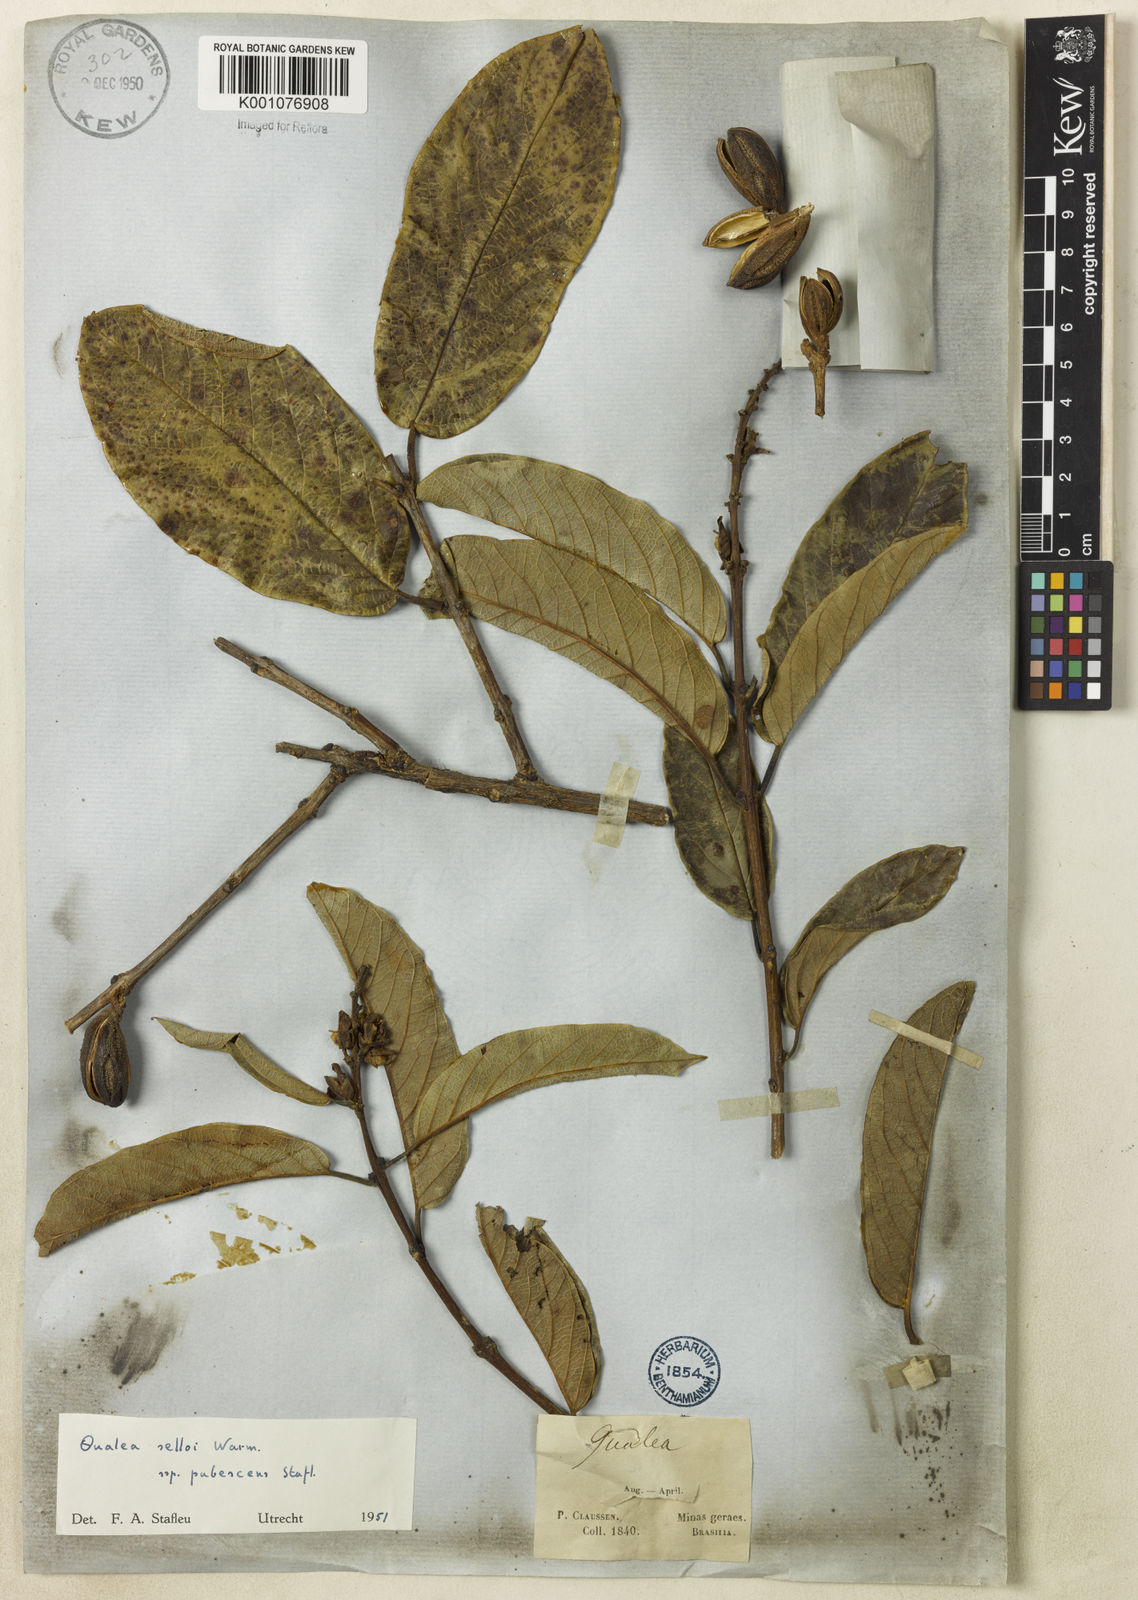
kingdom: Plantae
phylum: Tracheophyta
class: Magnoliopsida
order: Myrtales
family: Vochysiaceae
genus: Qualea
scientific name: Qualea selloi
